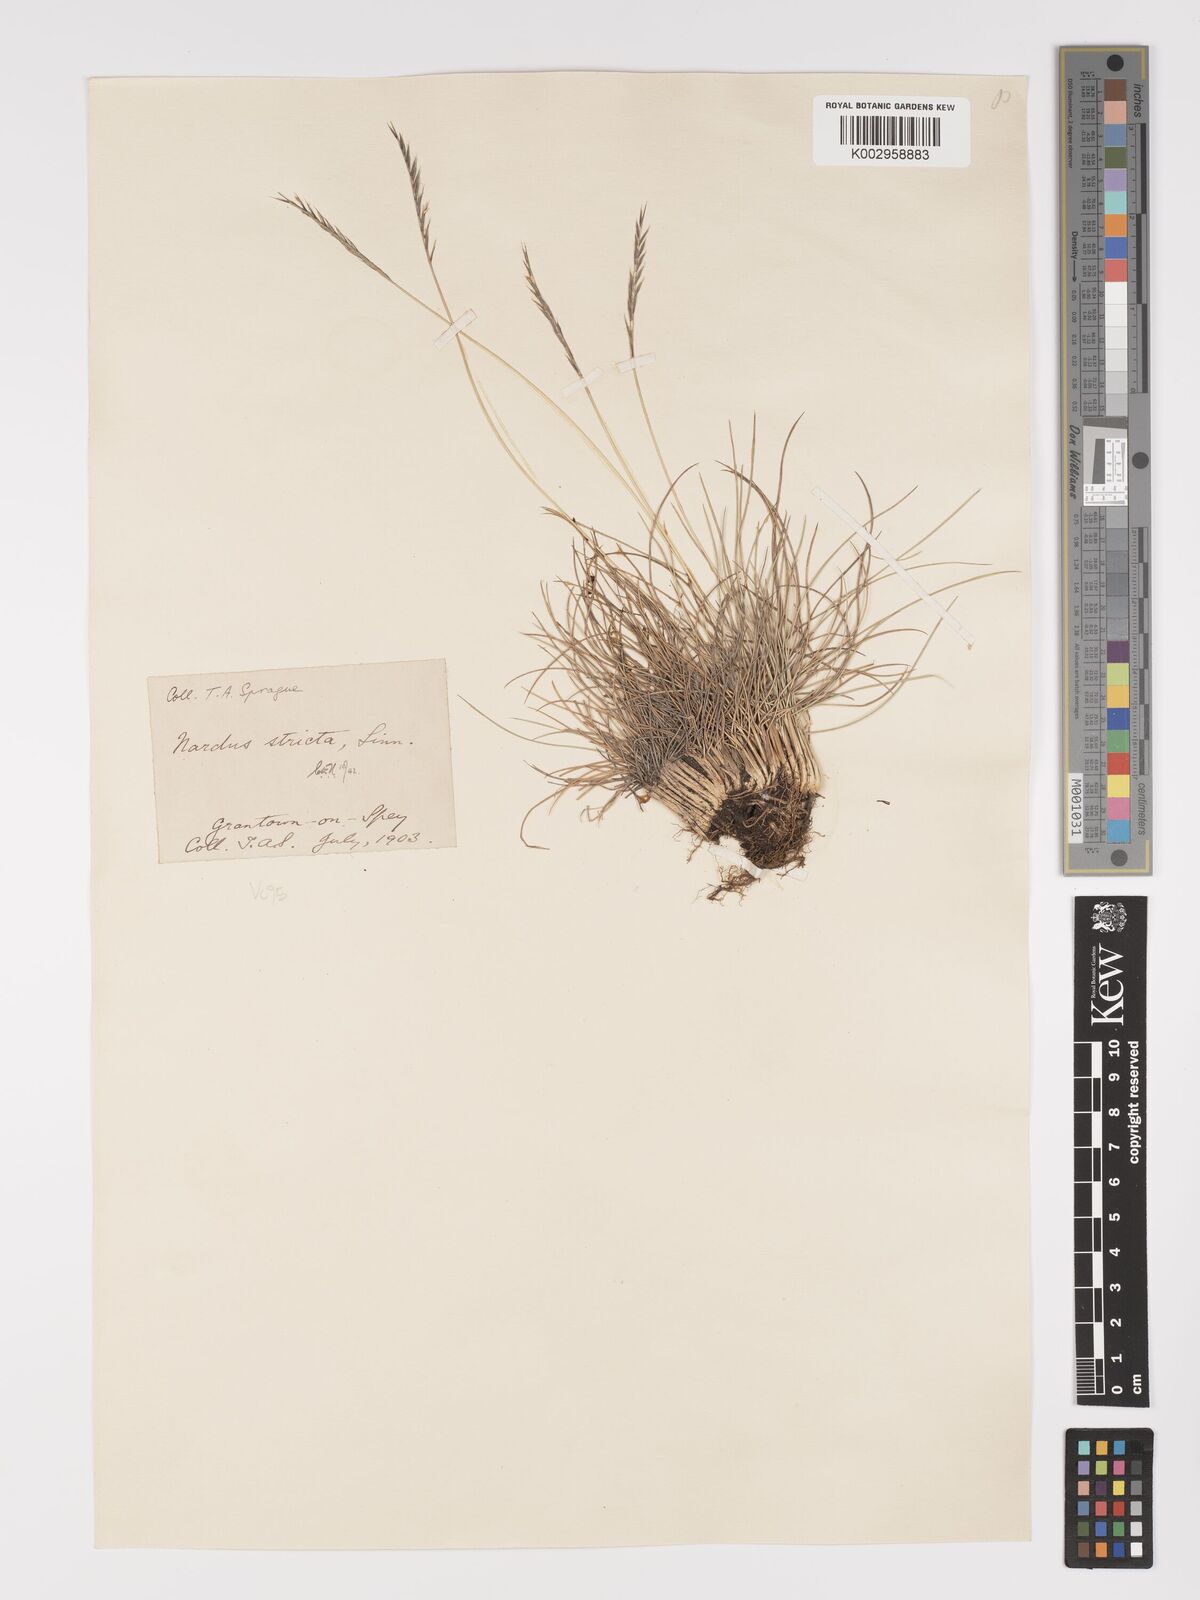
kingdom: Plantae
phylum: Tracheophyta
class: Liliopsida
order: Poales
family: Poaceae
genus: Nardus
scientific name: Nardus stricta
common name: Mat-grass
